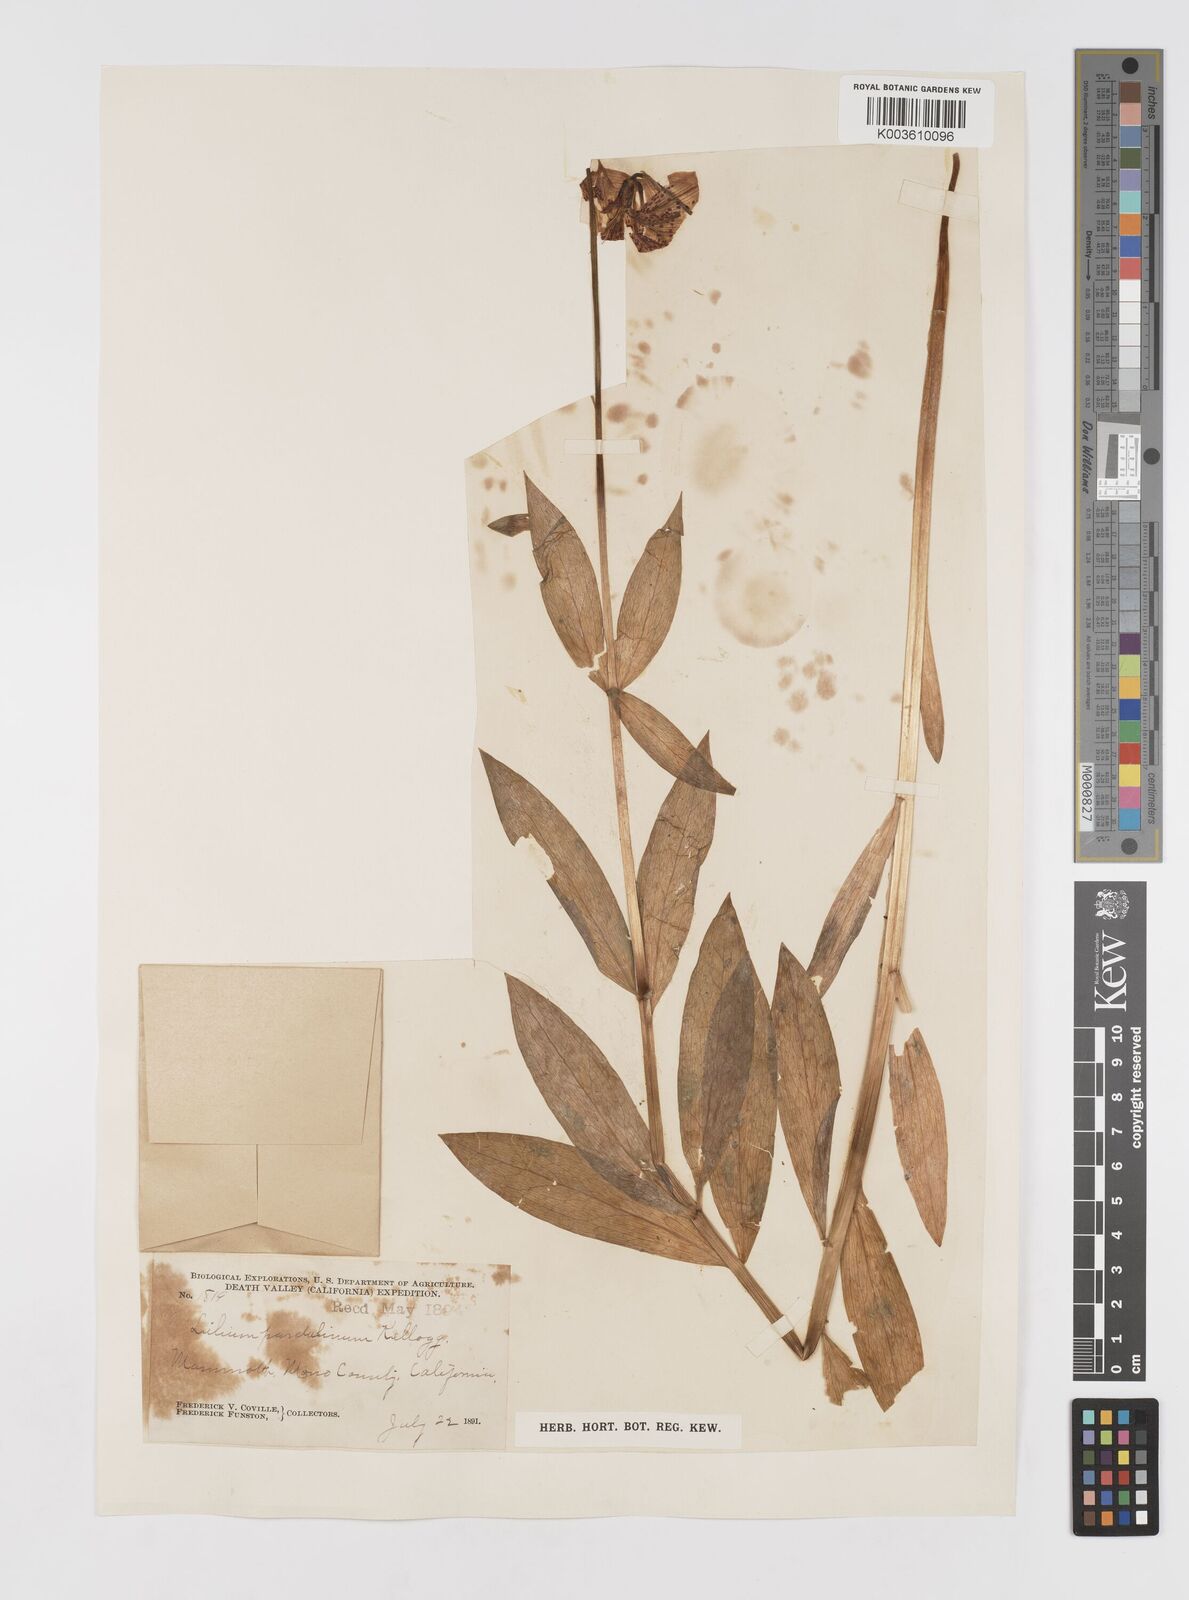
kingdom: Plantae
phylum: Tracheophyta
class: Liliopsida
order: Liliales
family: Liliaceae
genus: Lilium
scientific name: Lilium pardalinum
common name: Panther lily
